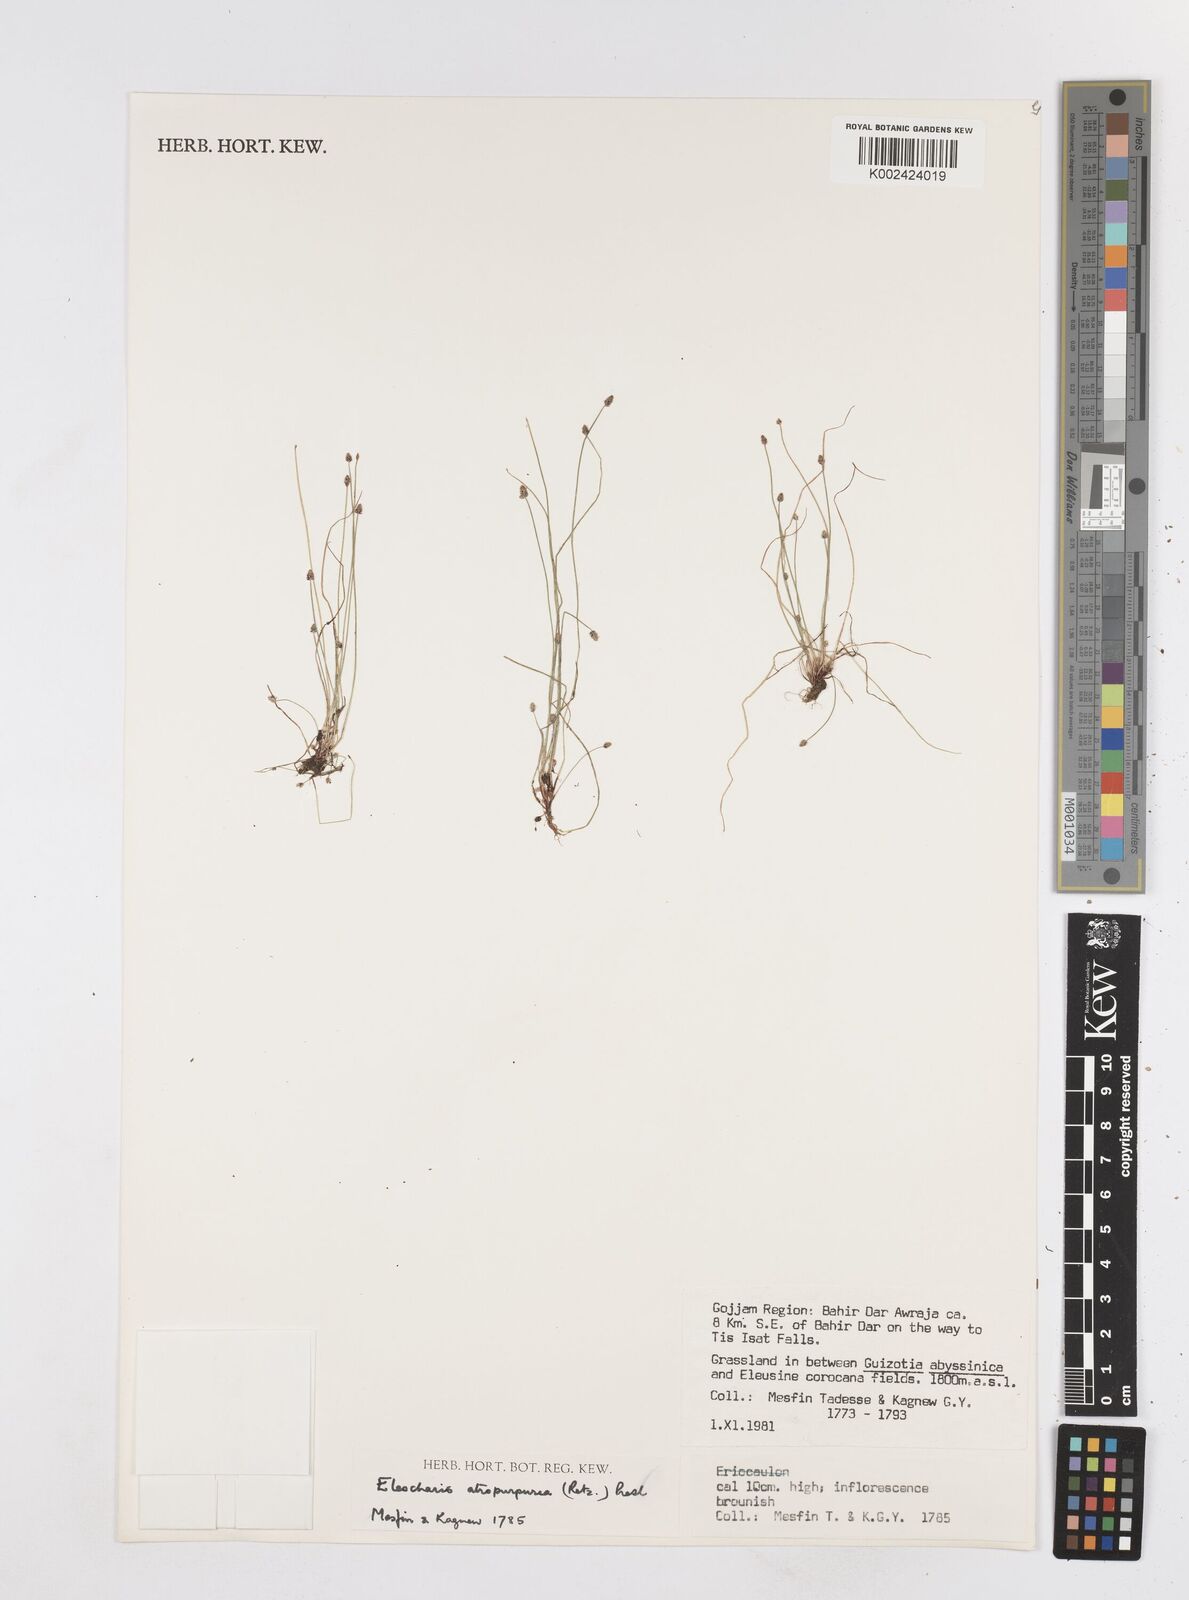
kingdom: Plantae
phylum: Tracheophyta
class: Liliopsida
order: Poales
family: Cyperaceae
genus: Eleocharis
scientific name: Eleocharis atropurpurea
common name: Purple spikerush
